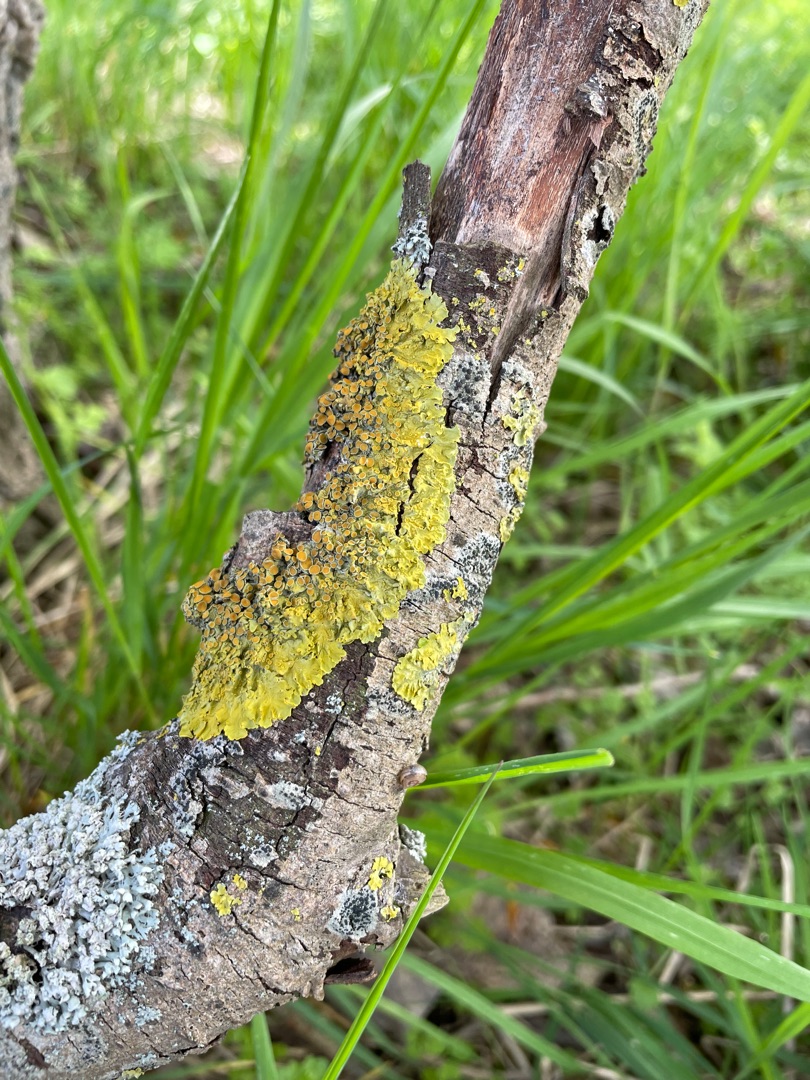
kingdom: Fungi
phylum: Ascomycota
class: Lecanoromycetes
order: Teloschistales
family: Teloschistaceae
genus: Xanthoria
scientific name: Xanthoria parietina
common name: Almindelig væggelav
